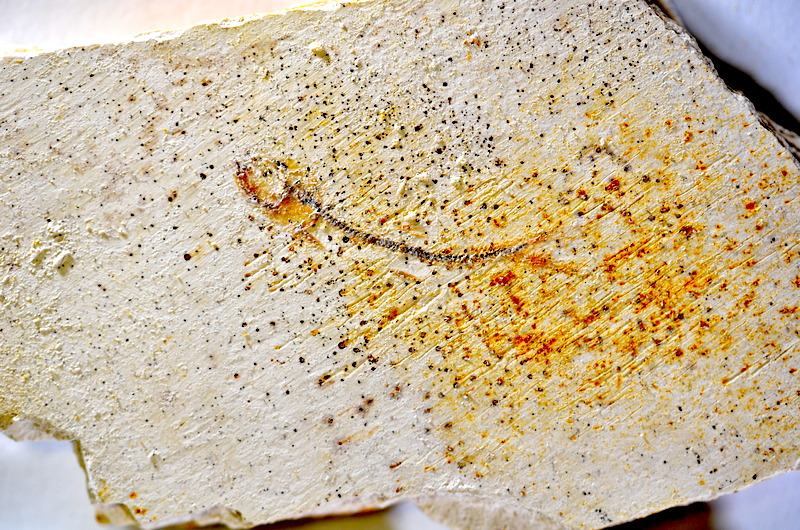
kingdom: Animalia
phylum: Chordata
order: Salmoniformes
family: Orthogonikleithridae
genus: Orthogonikleithrus
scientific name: Orthogonikleithrus hoelli
